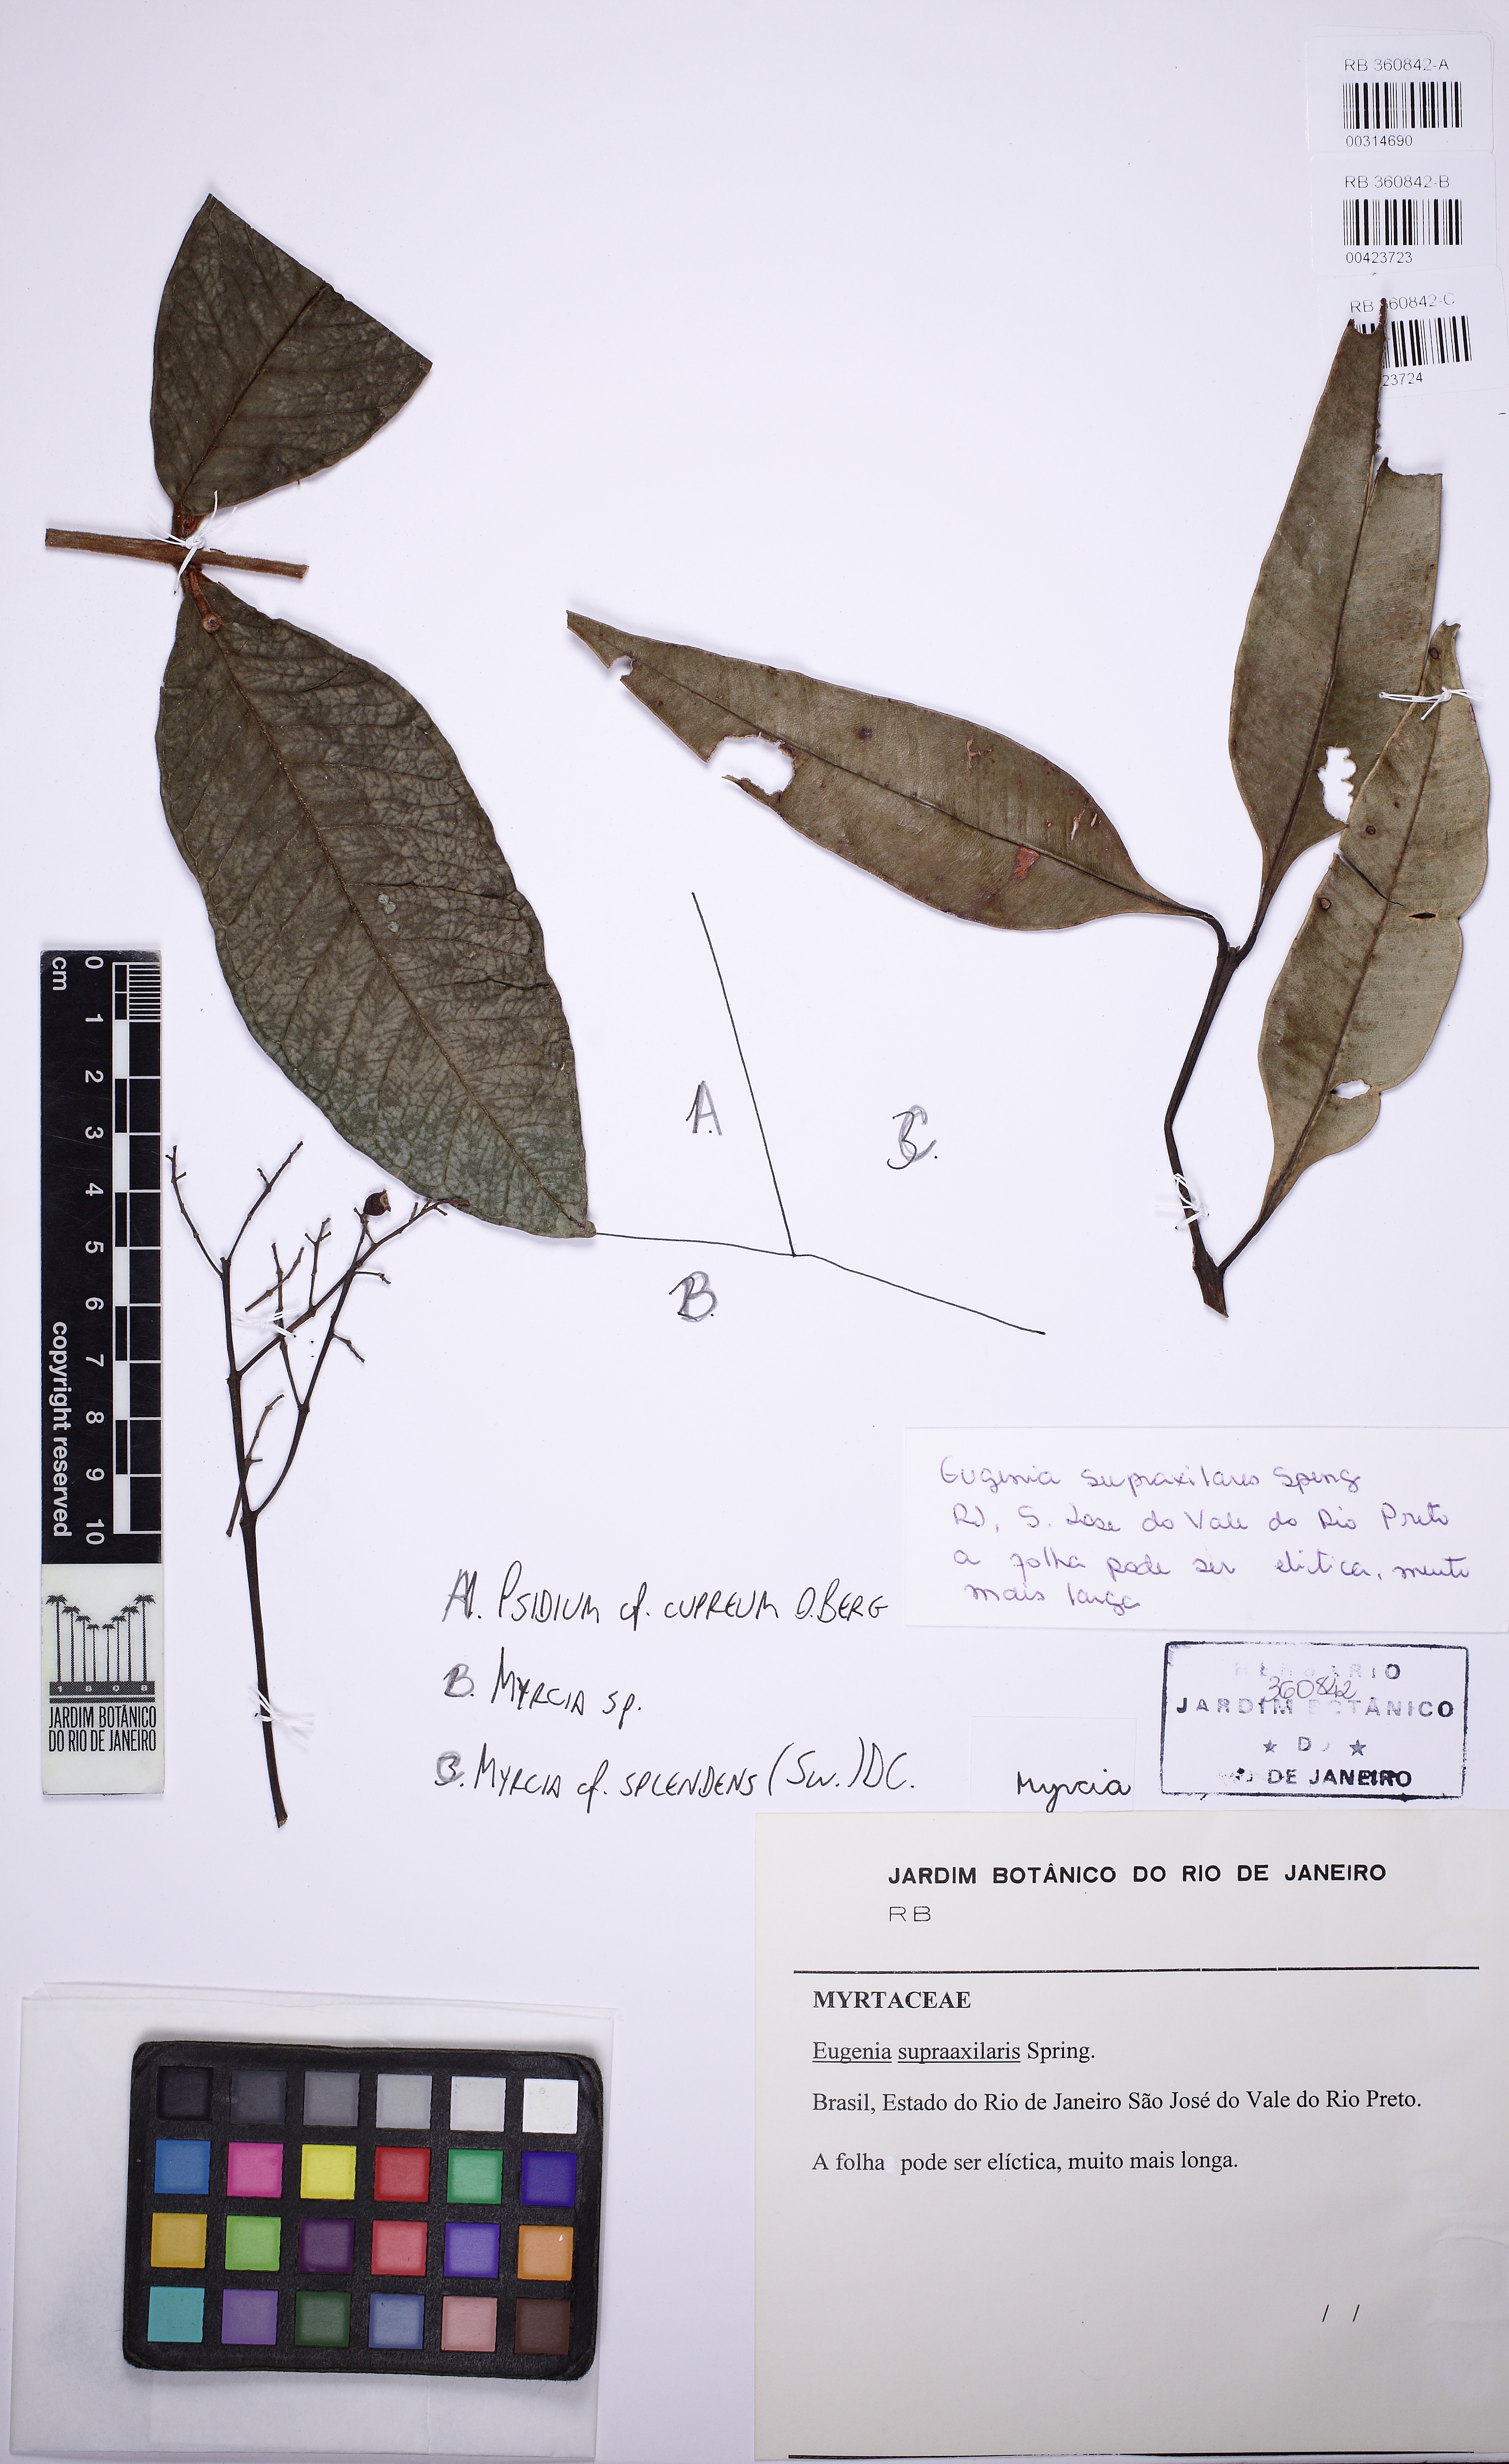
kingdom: Plantae
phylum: Tracheophyta
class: Magnoliopsida
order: Myrtales
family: Myrtaceae
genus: Myrcia
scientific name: Myrcia
